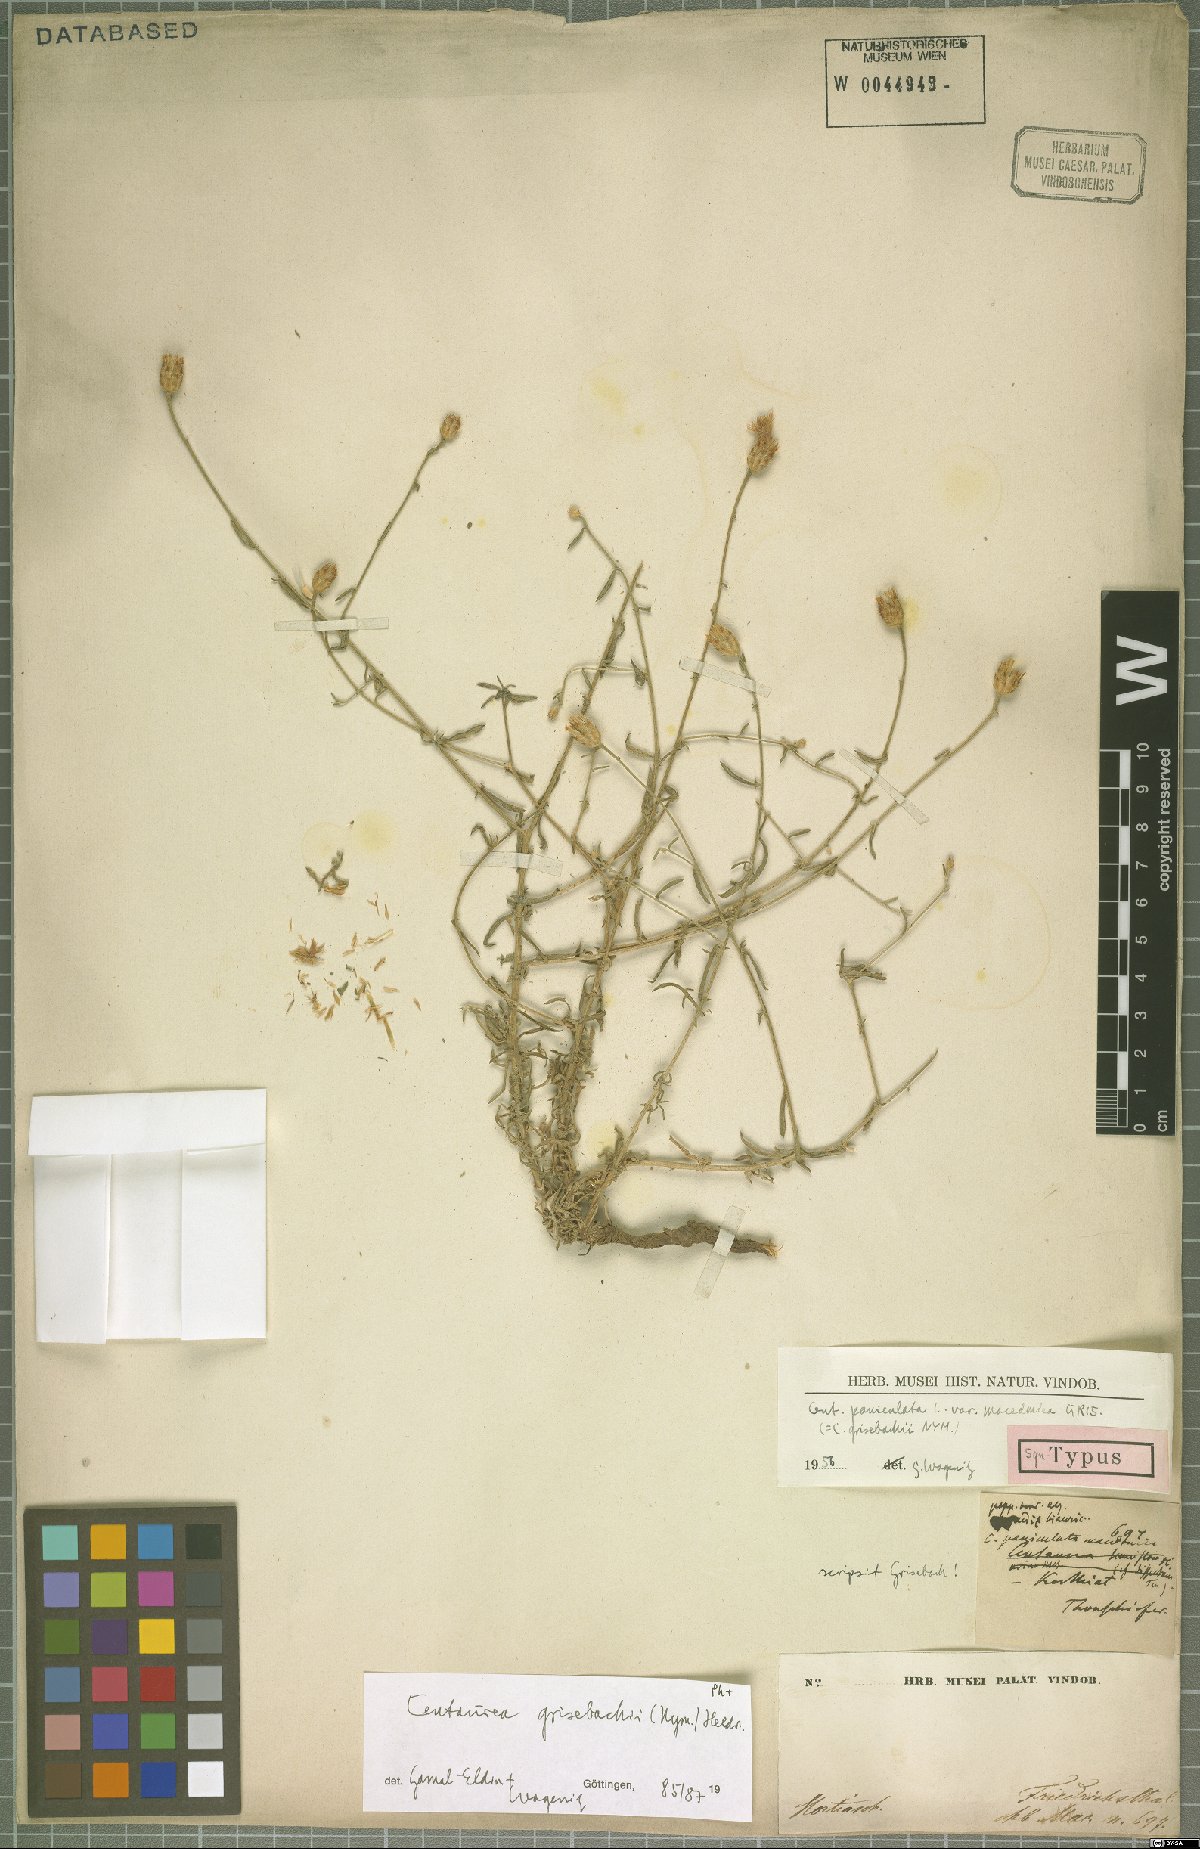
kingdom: Plantae
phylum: Tracheophyta
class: Magnoliopsida
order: Asterales
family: Asteraceae
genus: Centaurea
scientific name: Centaurea grisebachii
